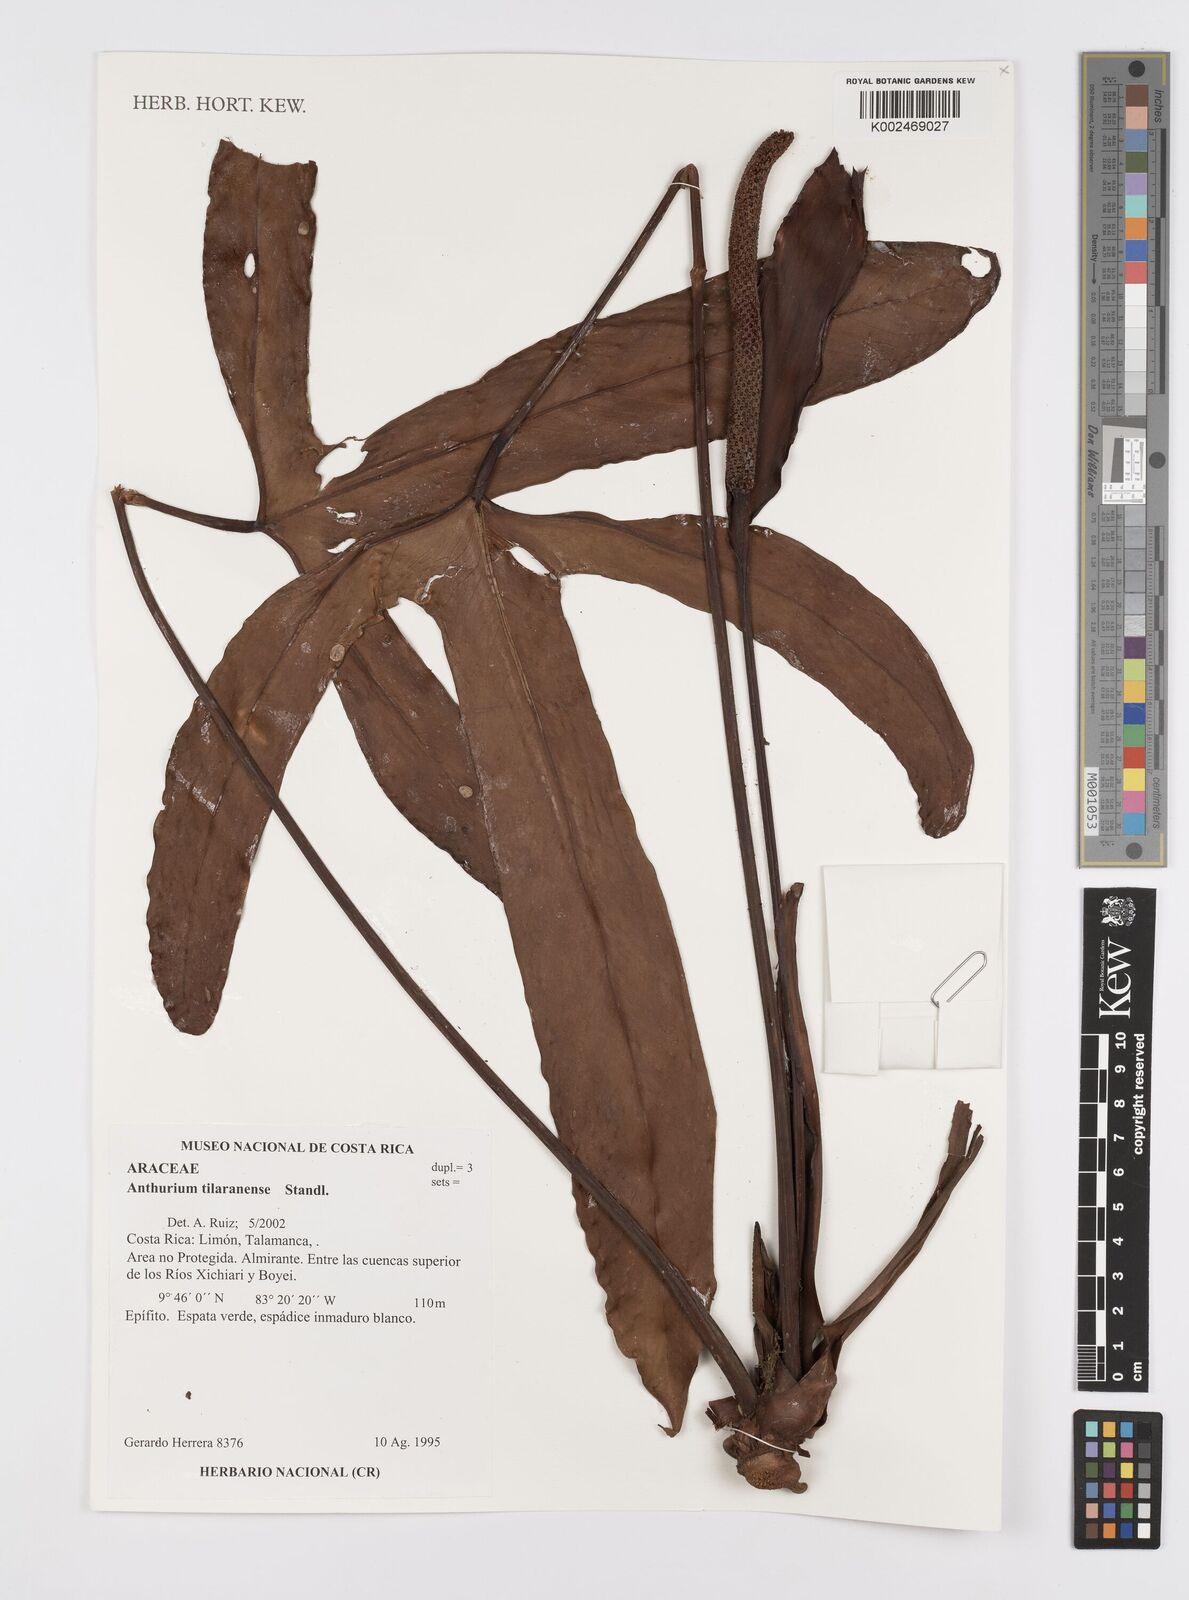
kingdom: Plantae
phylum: Tracheophyta
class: Liliopsida
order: Alismatales
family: Araceae
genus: Anthurium
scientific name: Anthurium tilaranense
